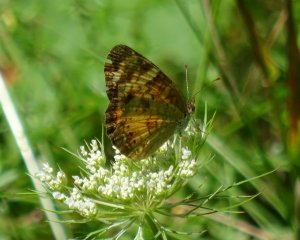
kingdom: Animalia
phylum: Arthropoda
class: Insecta
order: Lepidoptera
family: Nymphalidae
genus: Phyciodes
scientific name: Phyciodes tharos
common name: Northern Crescent
